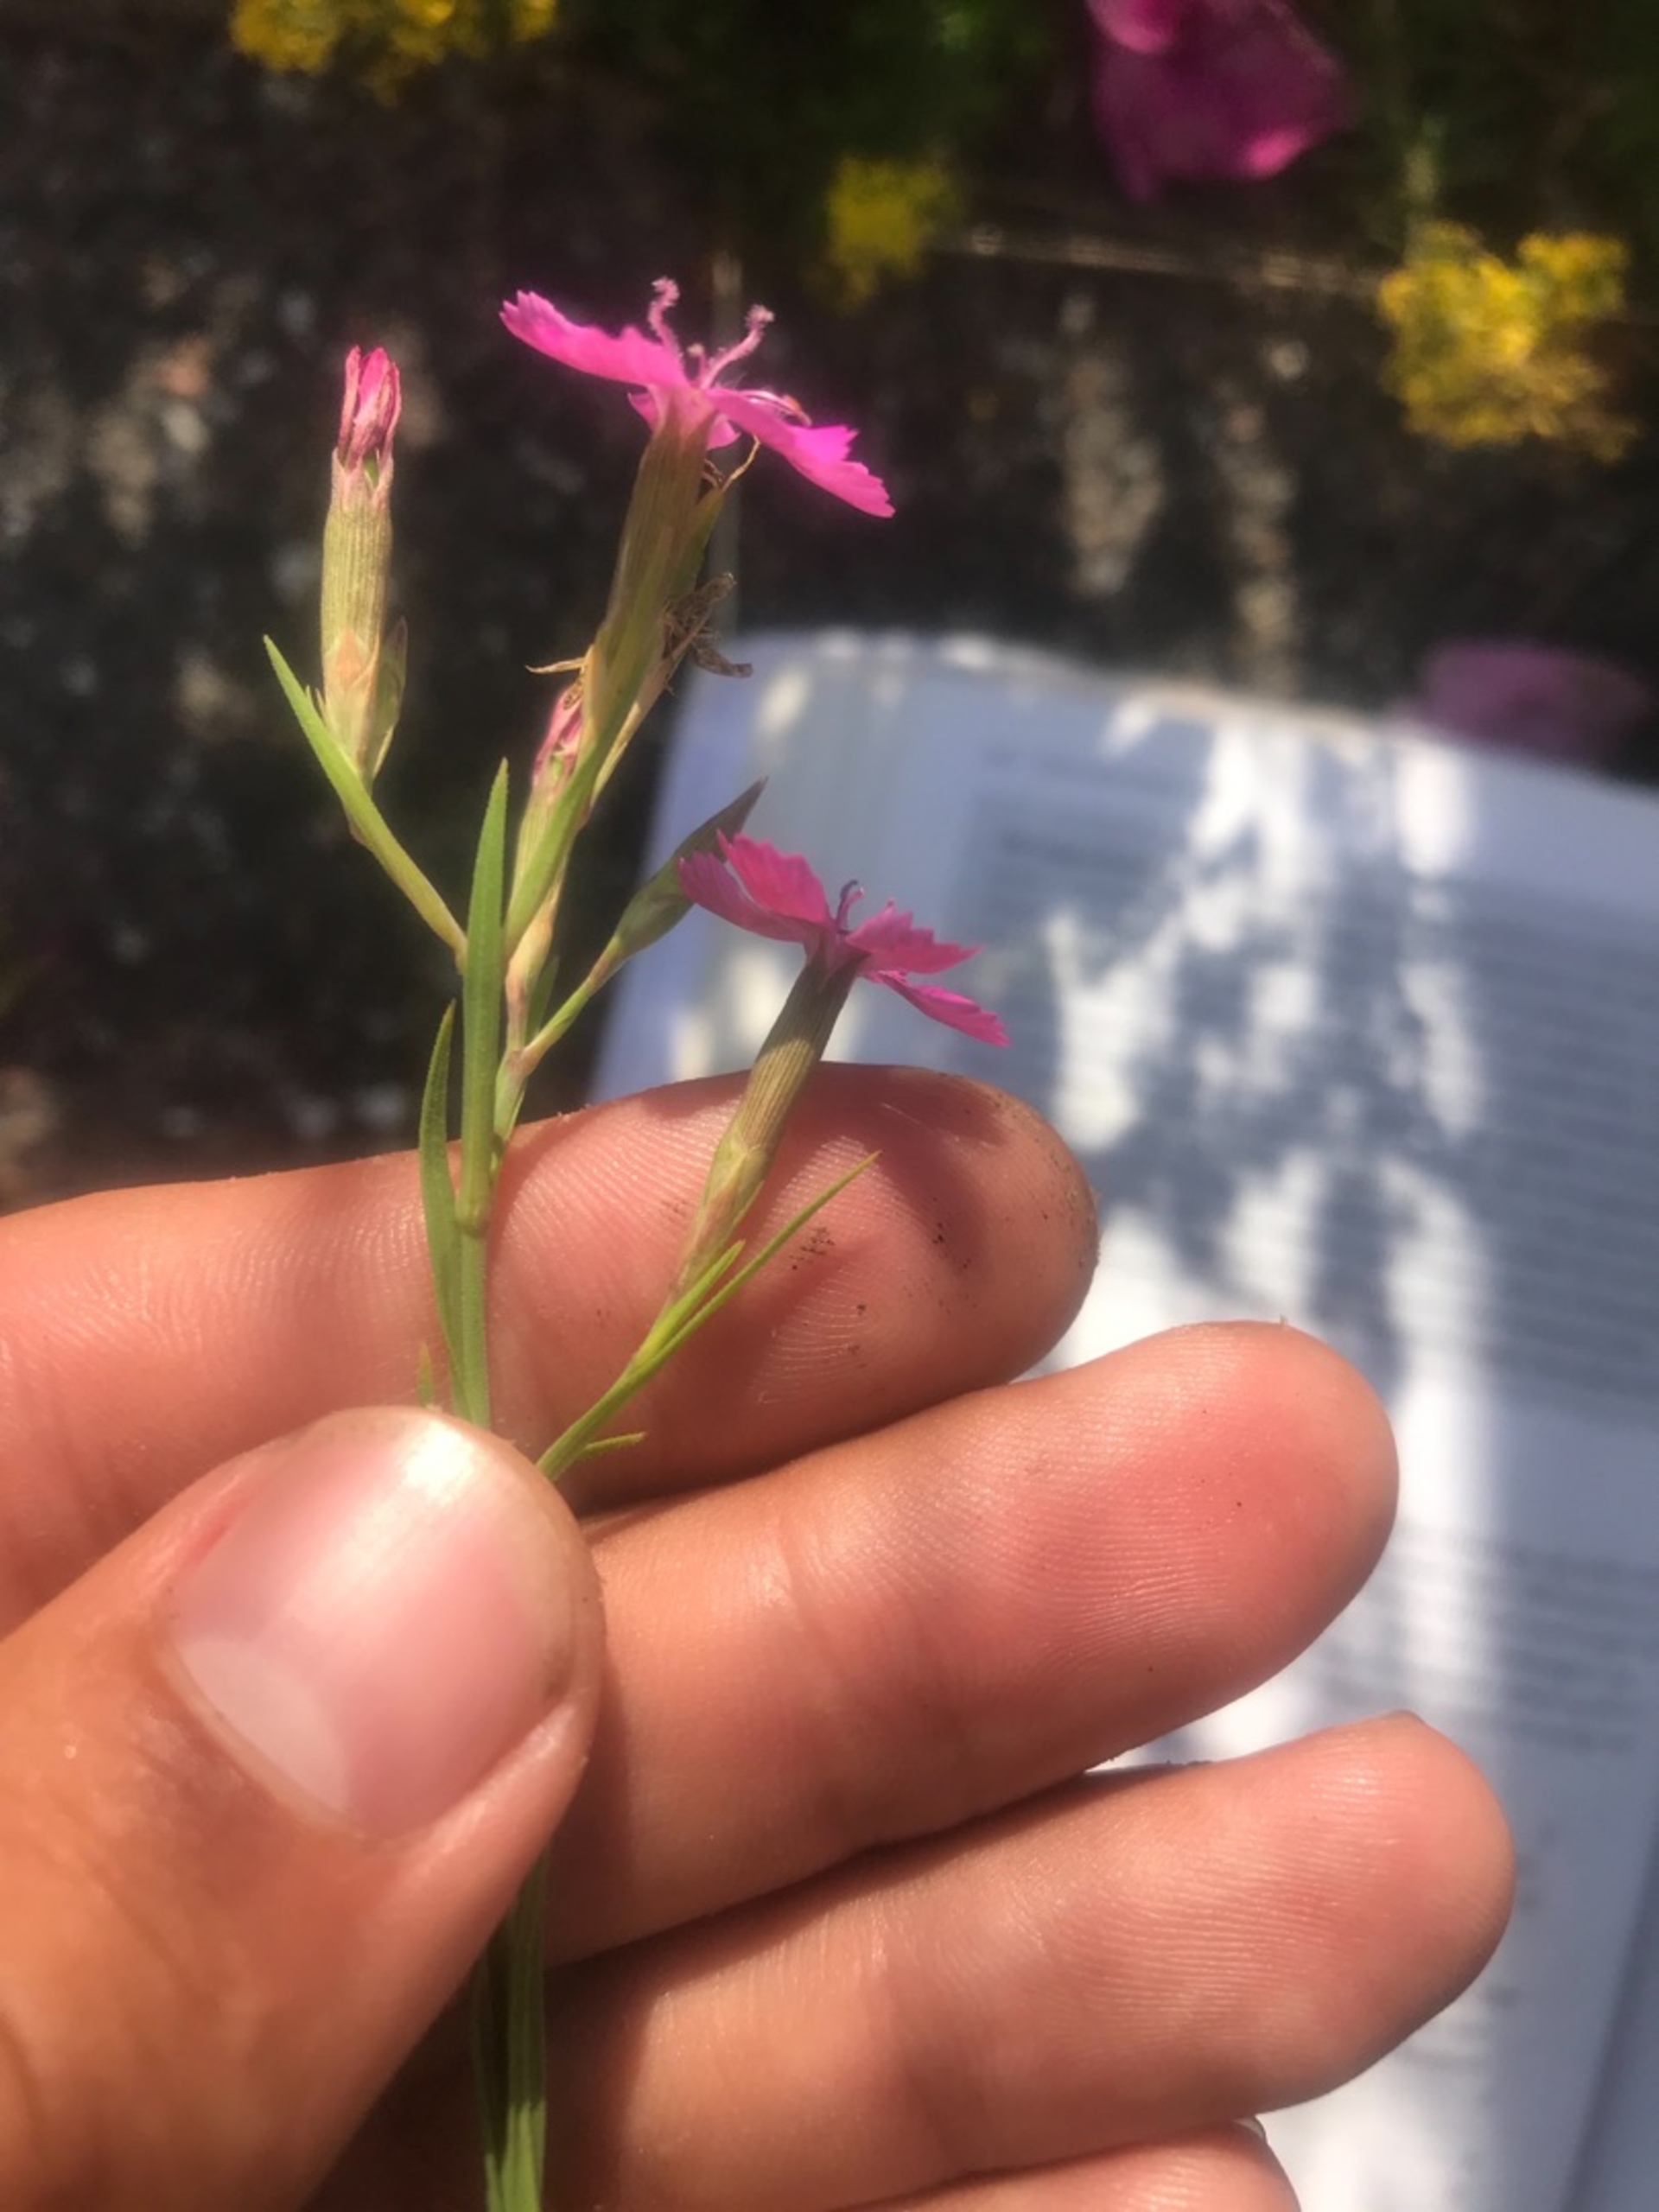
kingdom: Plantae
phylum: Tracheophyta
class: Magnoliopsida
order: Caryophyllales
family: Caryophyllaceae
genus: Dianthus
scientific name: Dianthus deltoides
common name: Bakke-nellike
